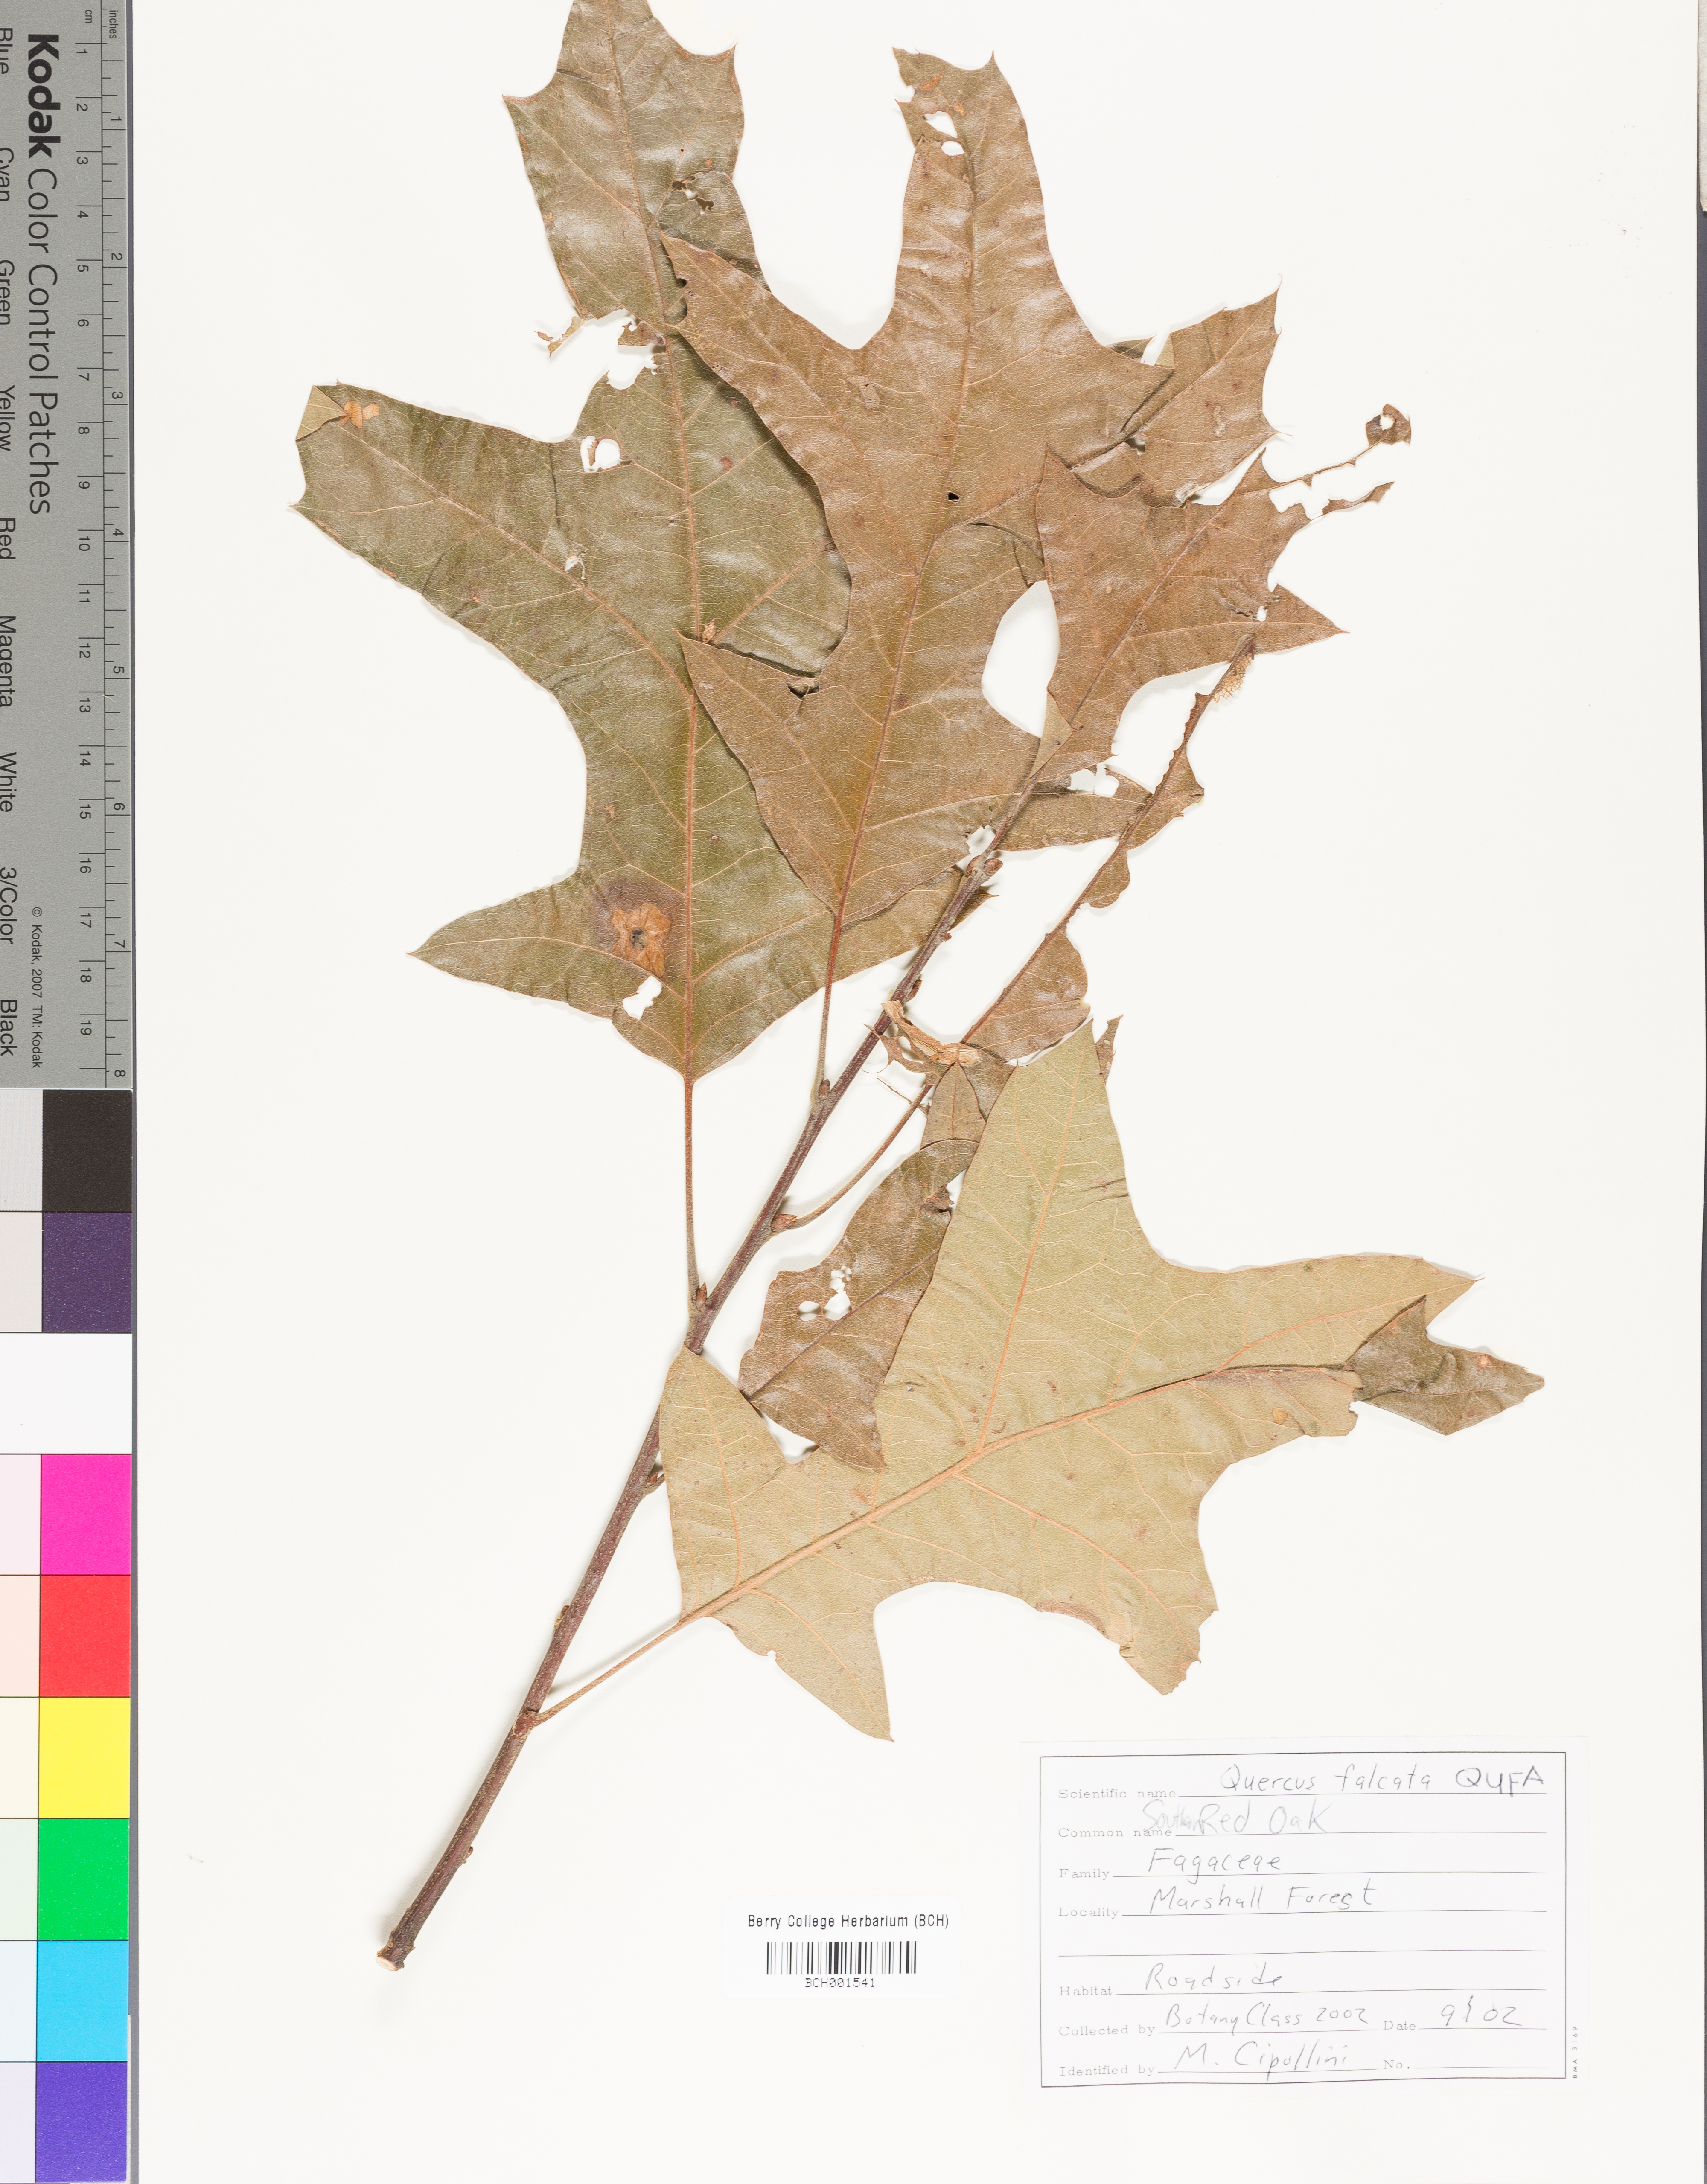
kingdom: Plantae
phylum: Tracheophyta
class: Magnoliopsida
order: Fagales
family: Fagaceae
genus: Quercus
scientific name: Quercus falcata
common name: Southern red oak
